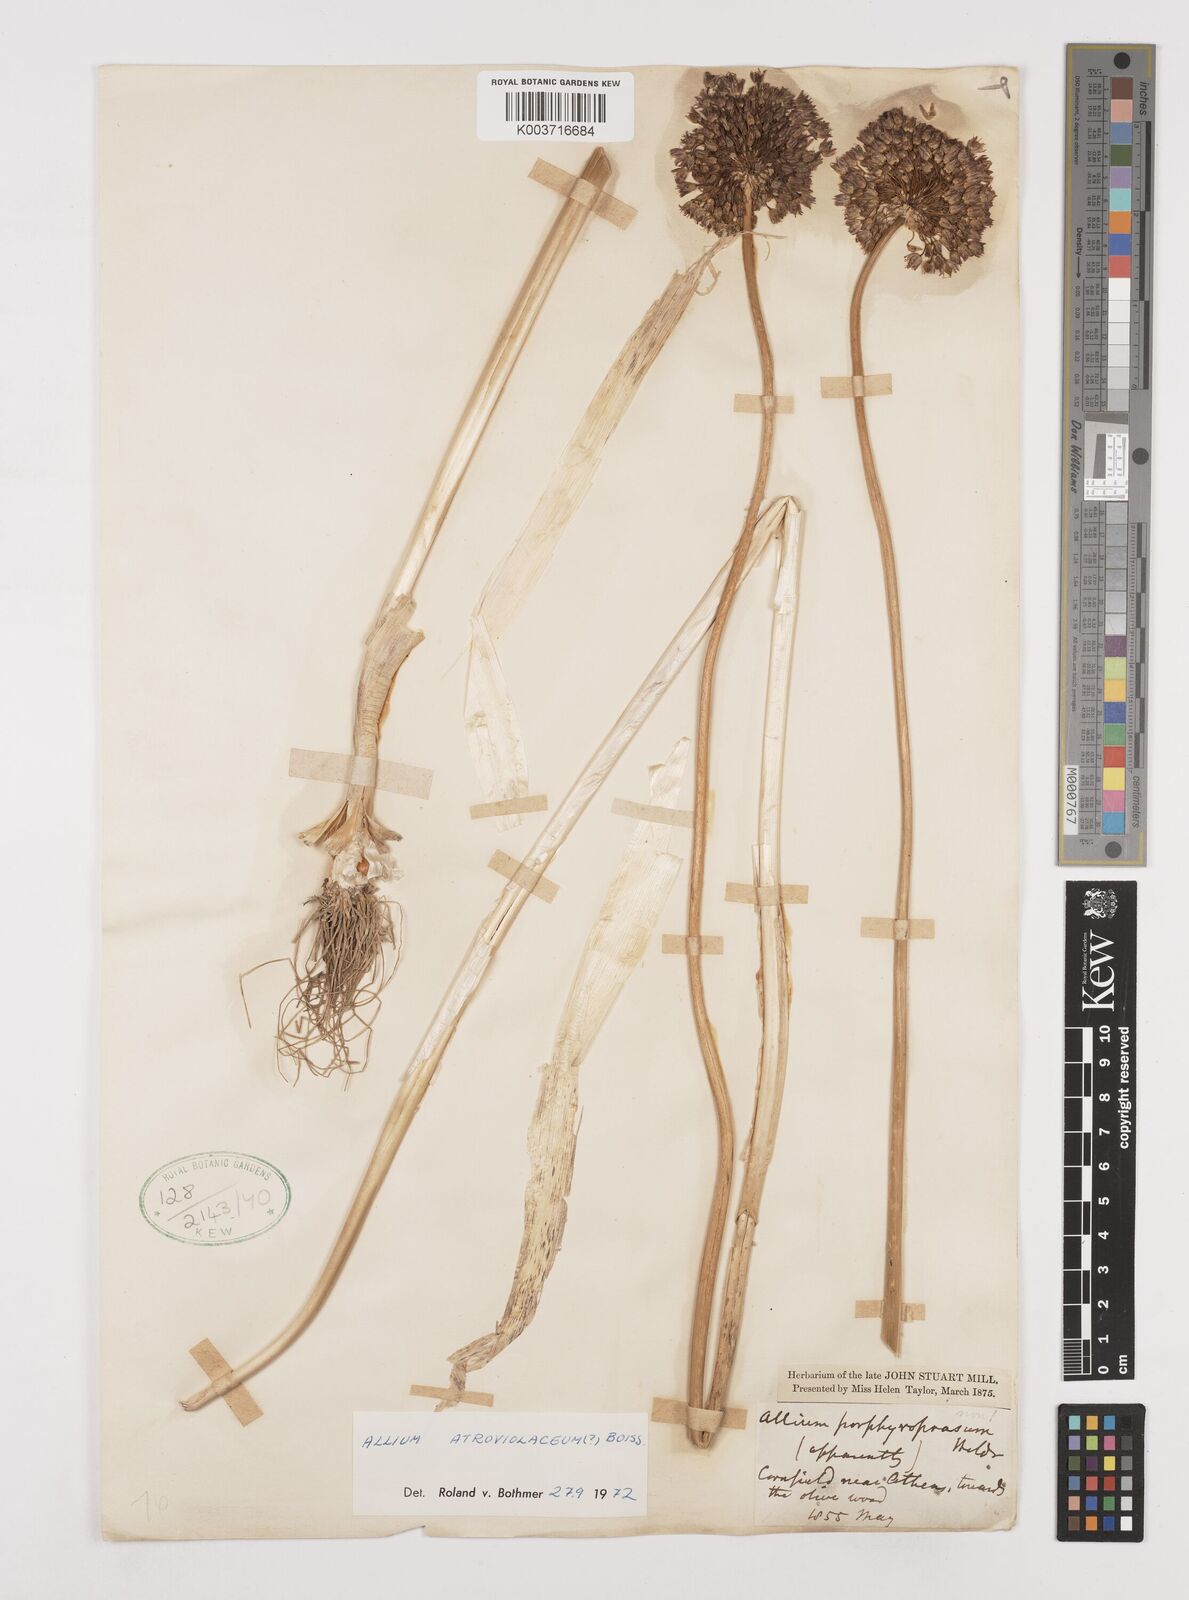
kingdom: Plantae
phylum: Tracheophyta
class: Liliopsida
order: Asparagales
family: Amaryllidaceae
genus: Allium
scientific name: Allium sphaerocephalon
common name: Round-headed leek
